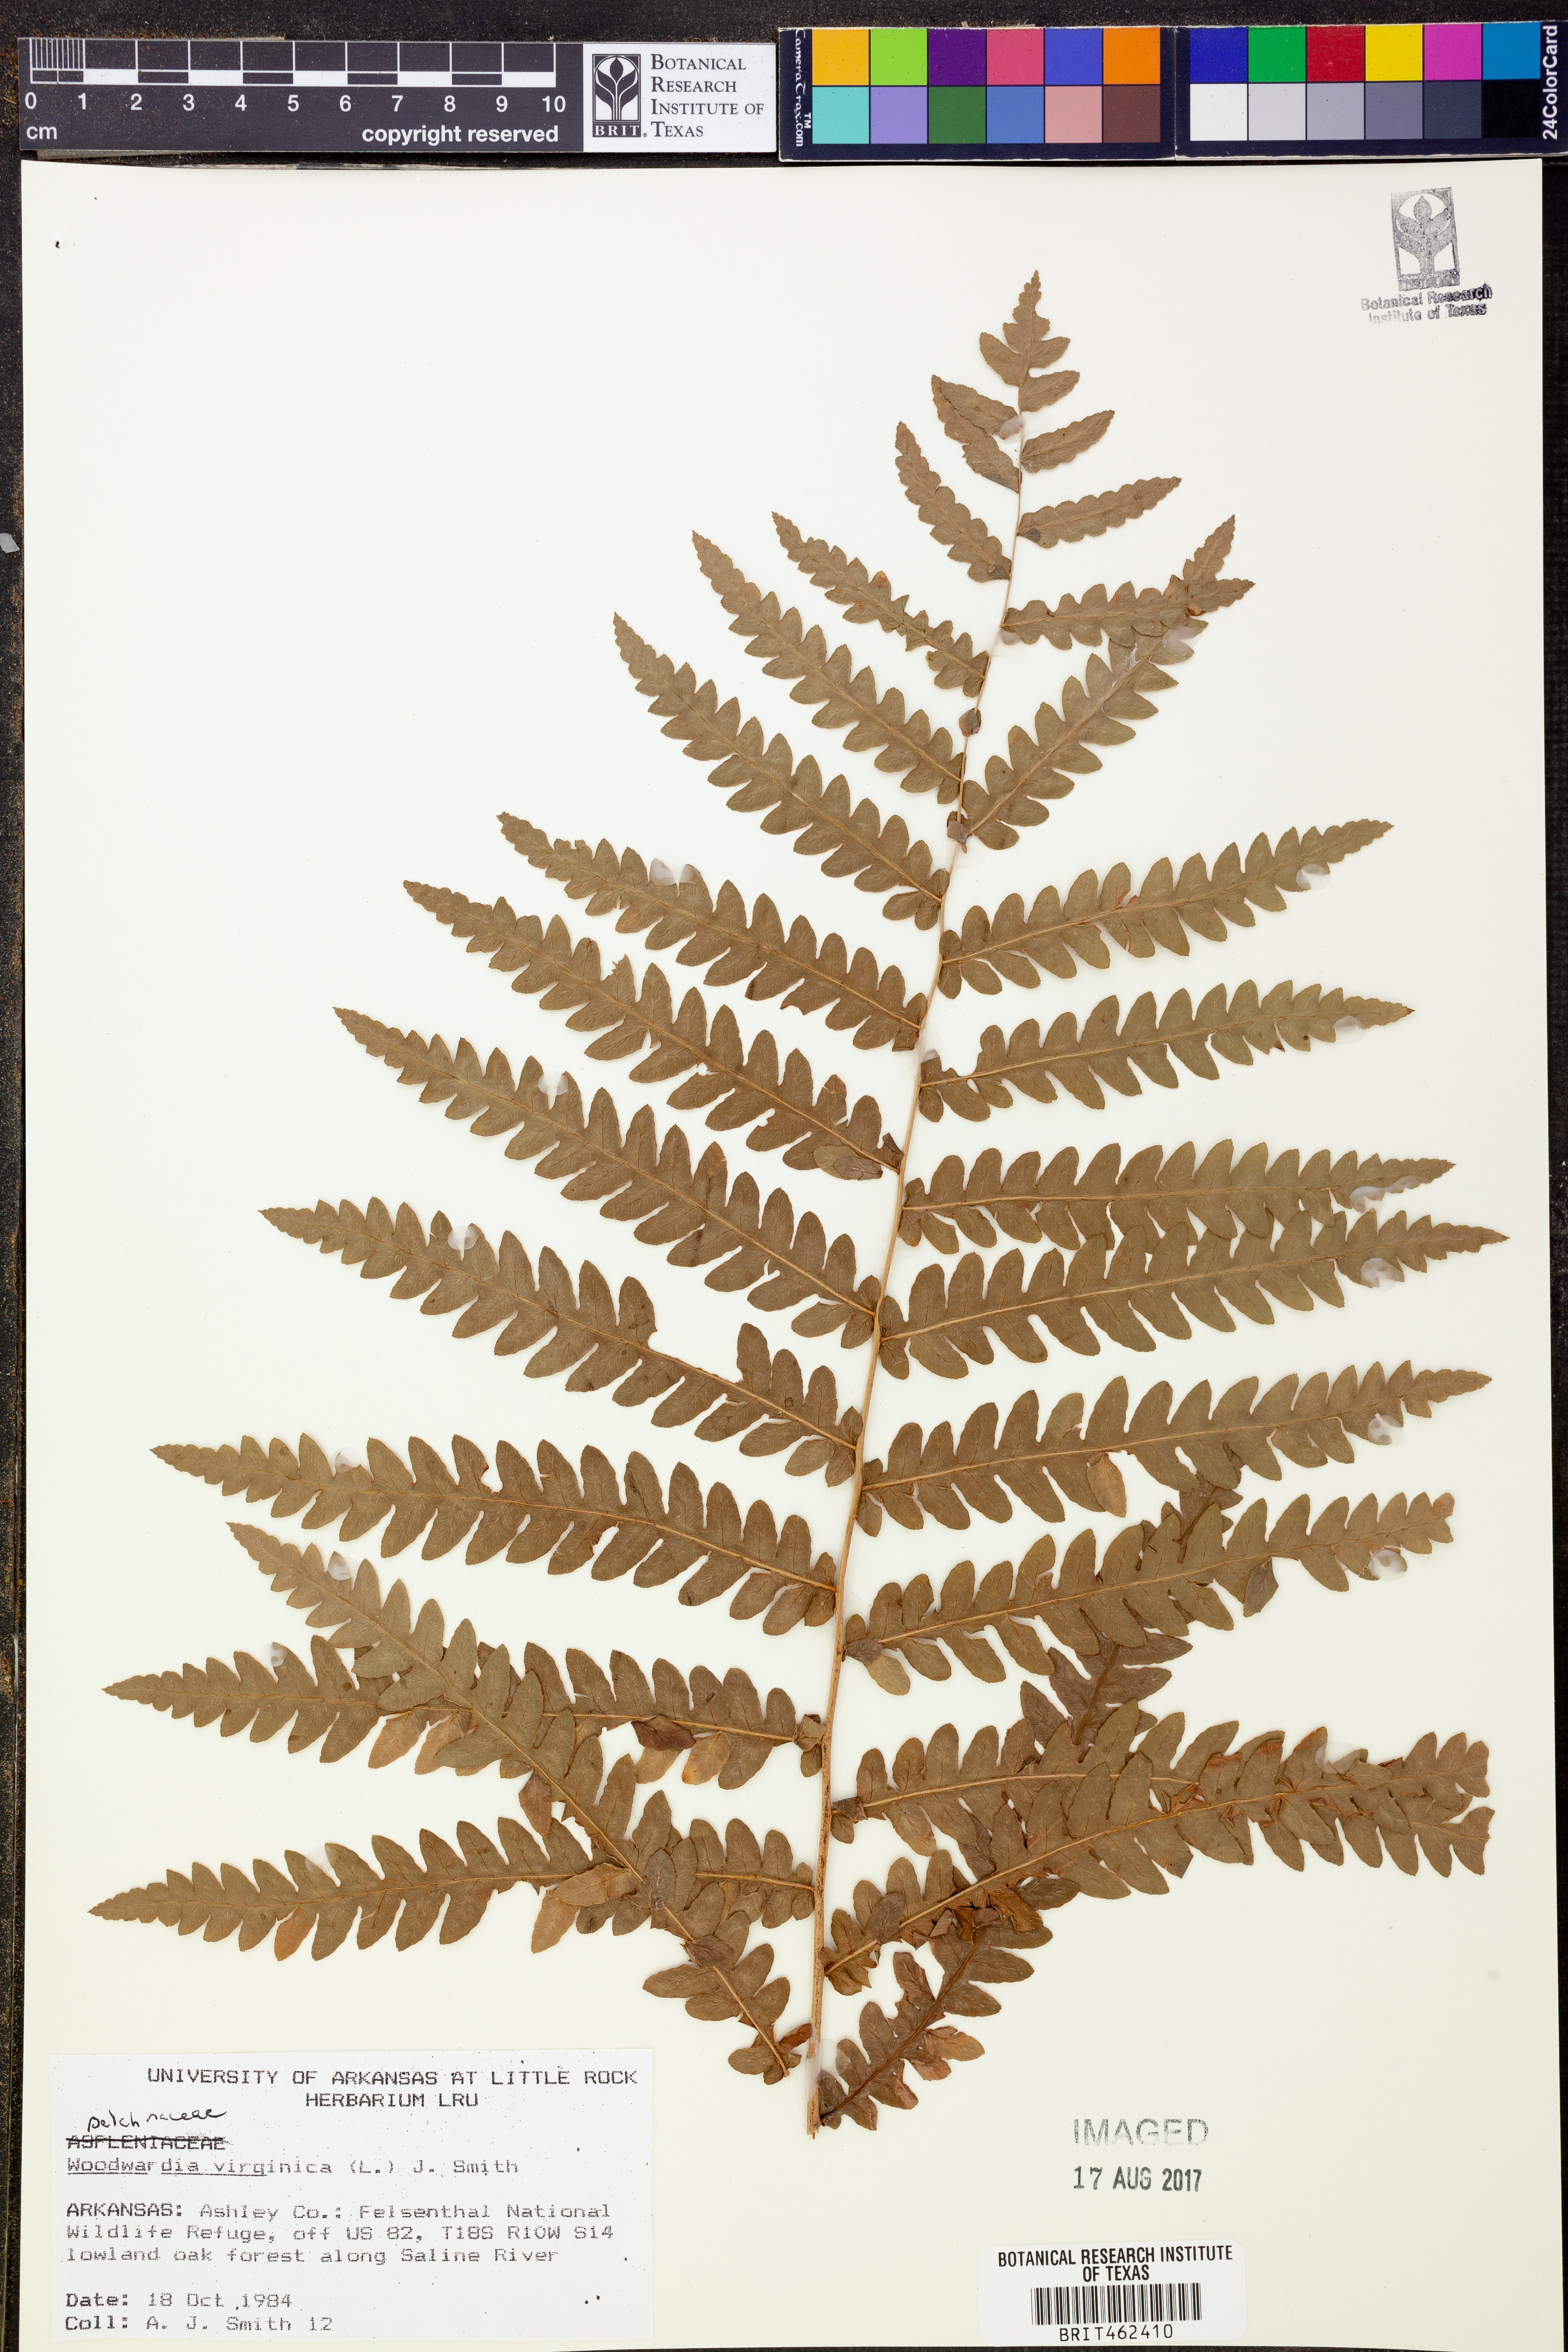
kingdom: Plantae
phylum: Tracheophyta
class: Polypodiopsida
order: Polypodiales
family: Blechnaceae
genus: Anchistea
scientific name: Anchistea virginica
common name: Virginia chain fern
